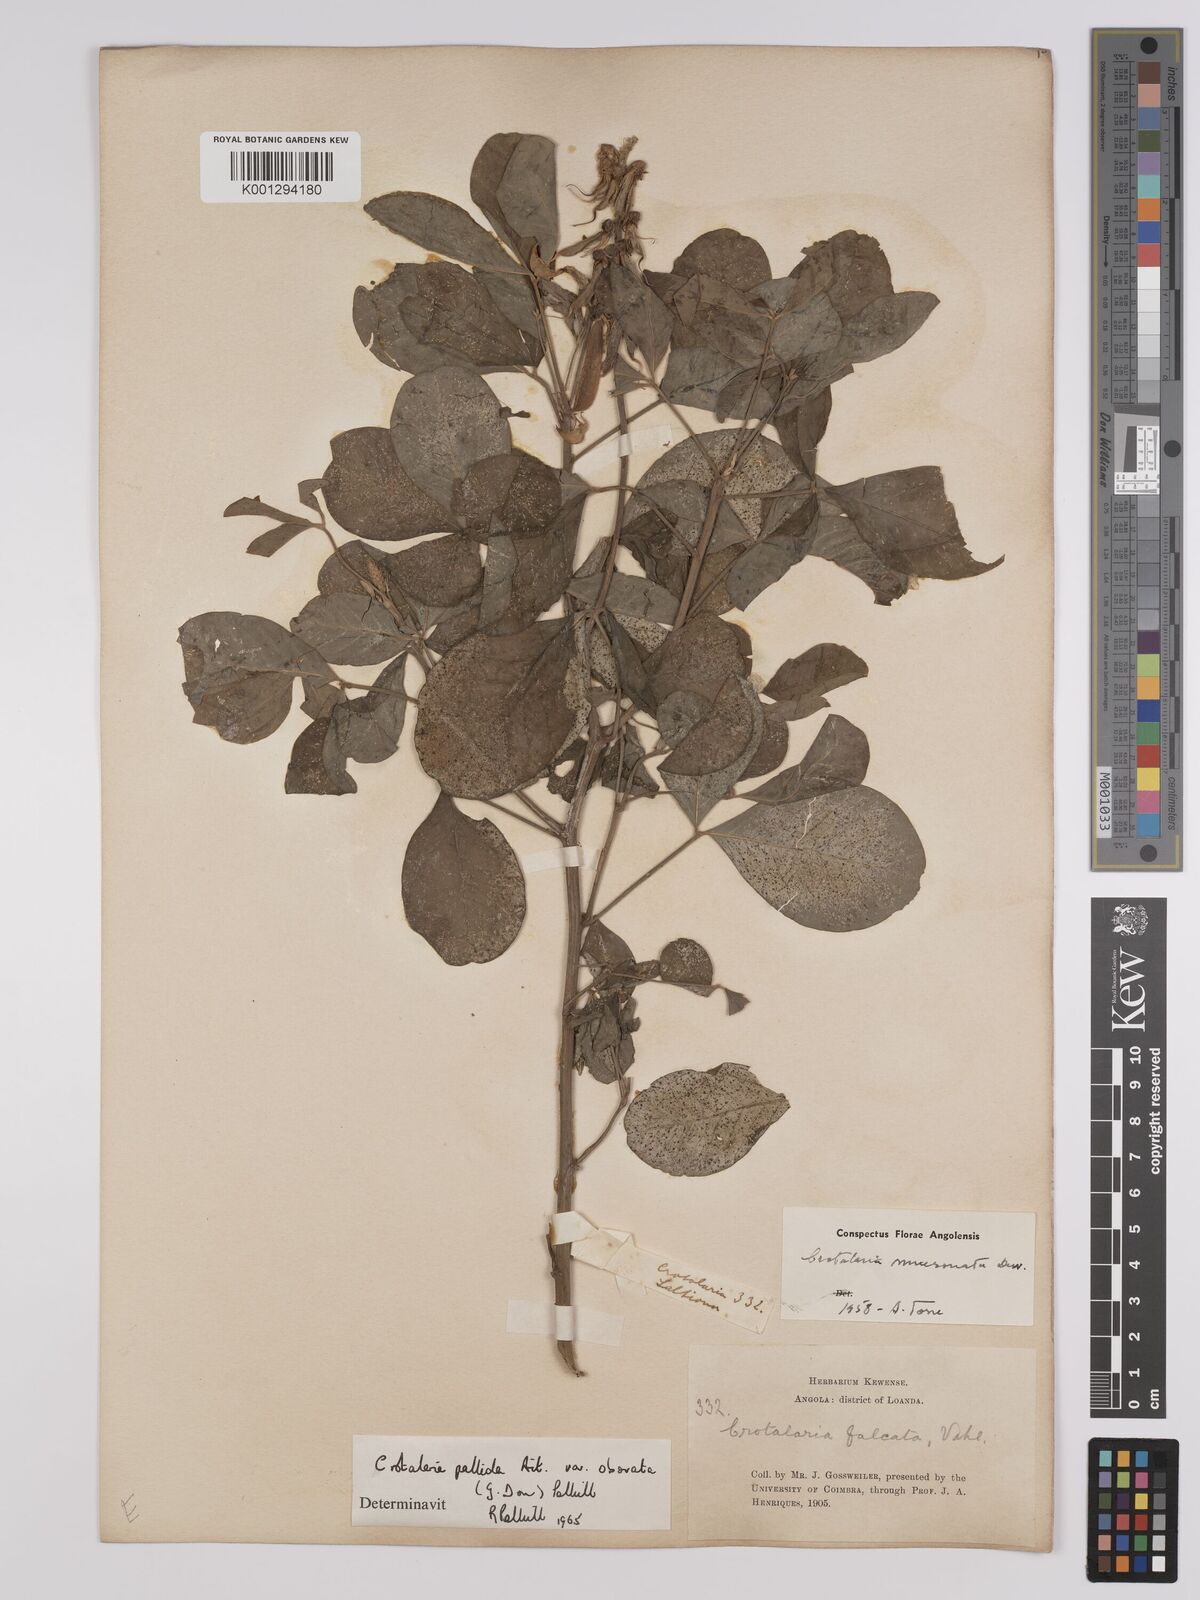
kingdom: Plantae
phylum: Tracheophyta
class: Magnoliopsida
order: Fabales
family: Fabaceae
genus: Crotalaria
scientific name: Crotalaria pallida
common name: Smooth rattlebox
